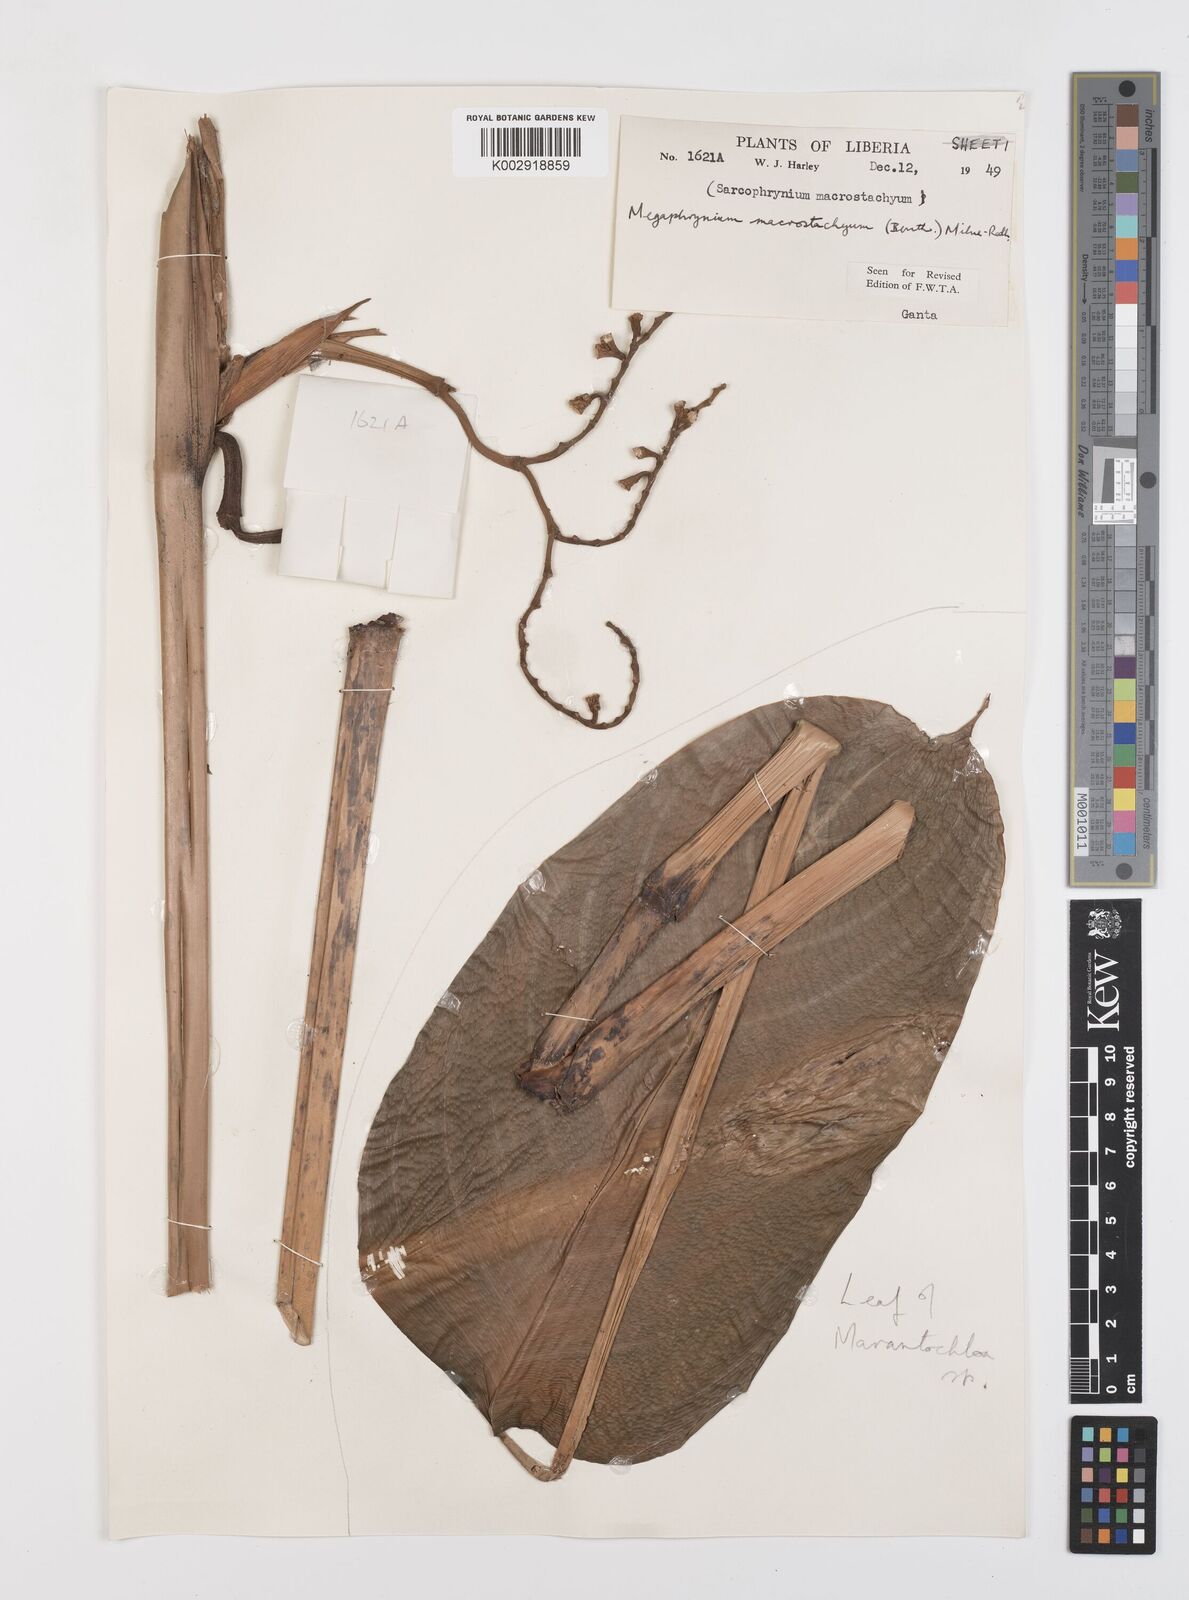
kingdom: Plantae
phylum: Tracheophyta
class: Liliopsida
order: Zingiberales
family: Marantaceae
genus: Megaphrynium
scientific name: Megaphrynium macrostachyum
